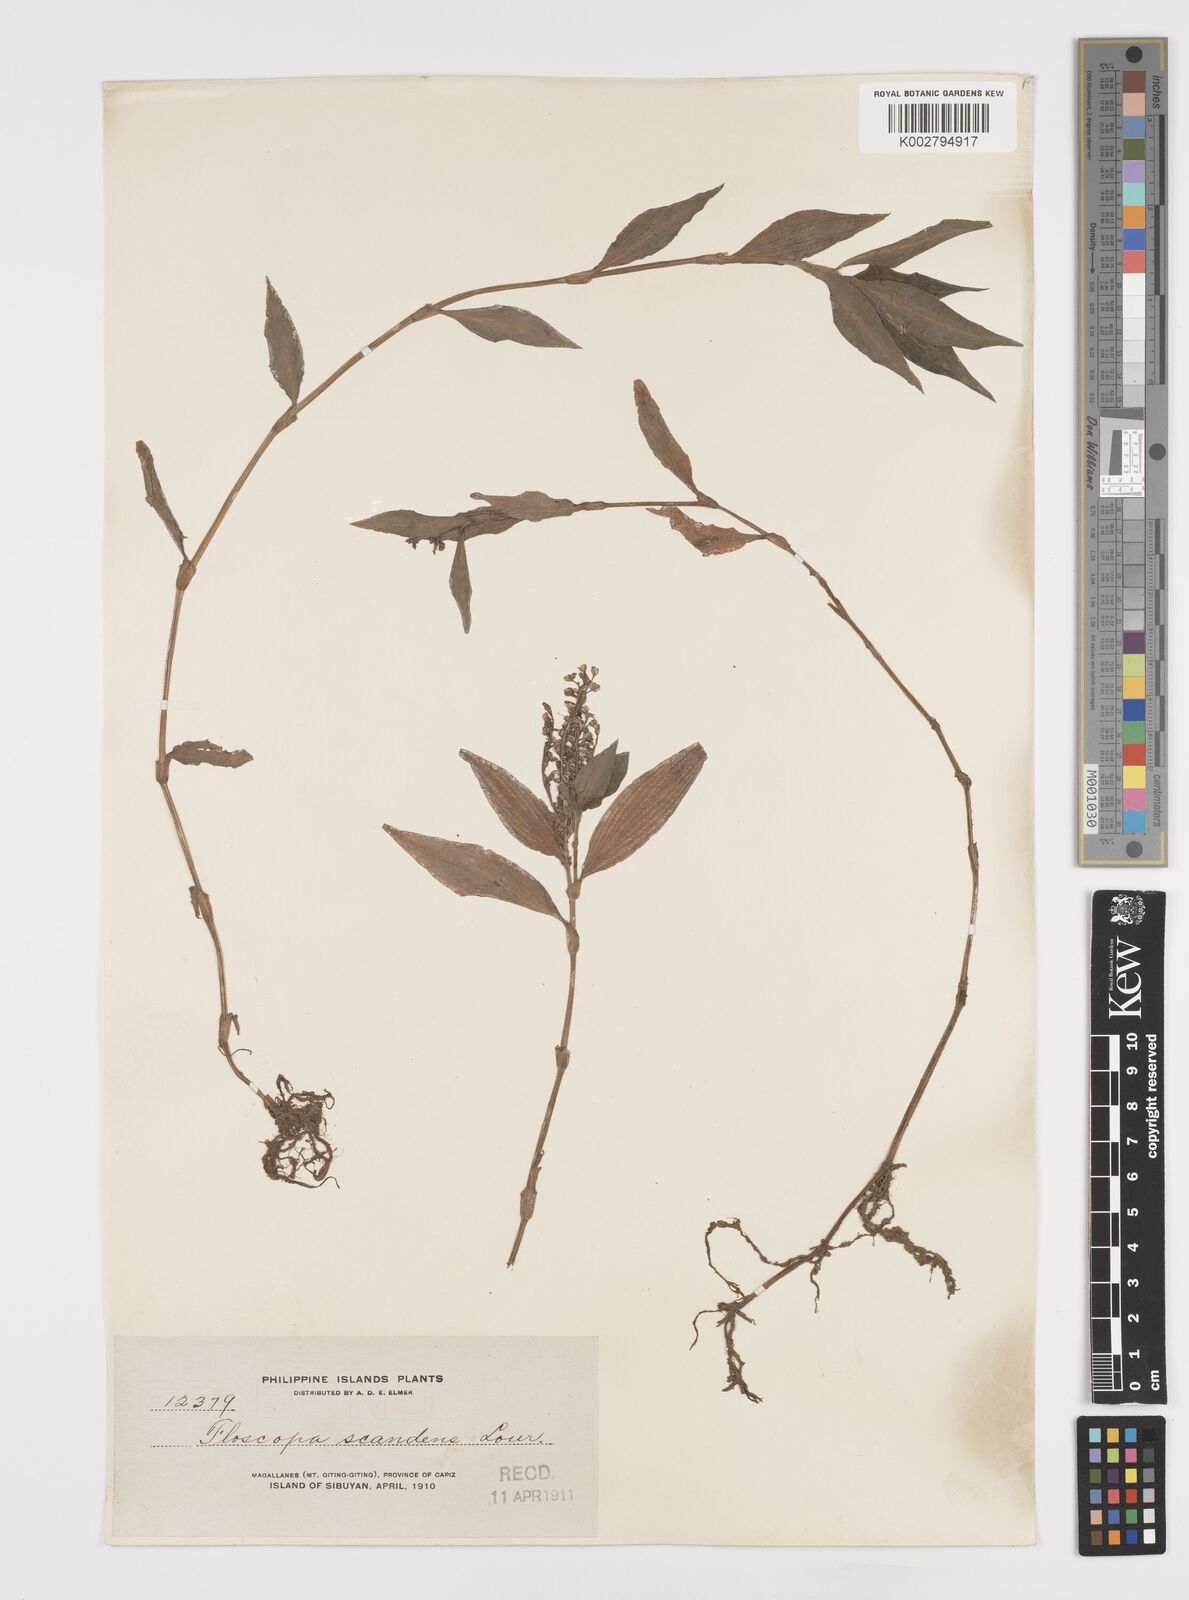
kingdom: Plantae
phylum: Tracheophyta
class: Liliopsida
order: Commelinales
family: Commelinaceae
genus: Floscopa
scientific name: Floscopa scandens
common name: Climbing flower cup
